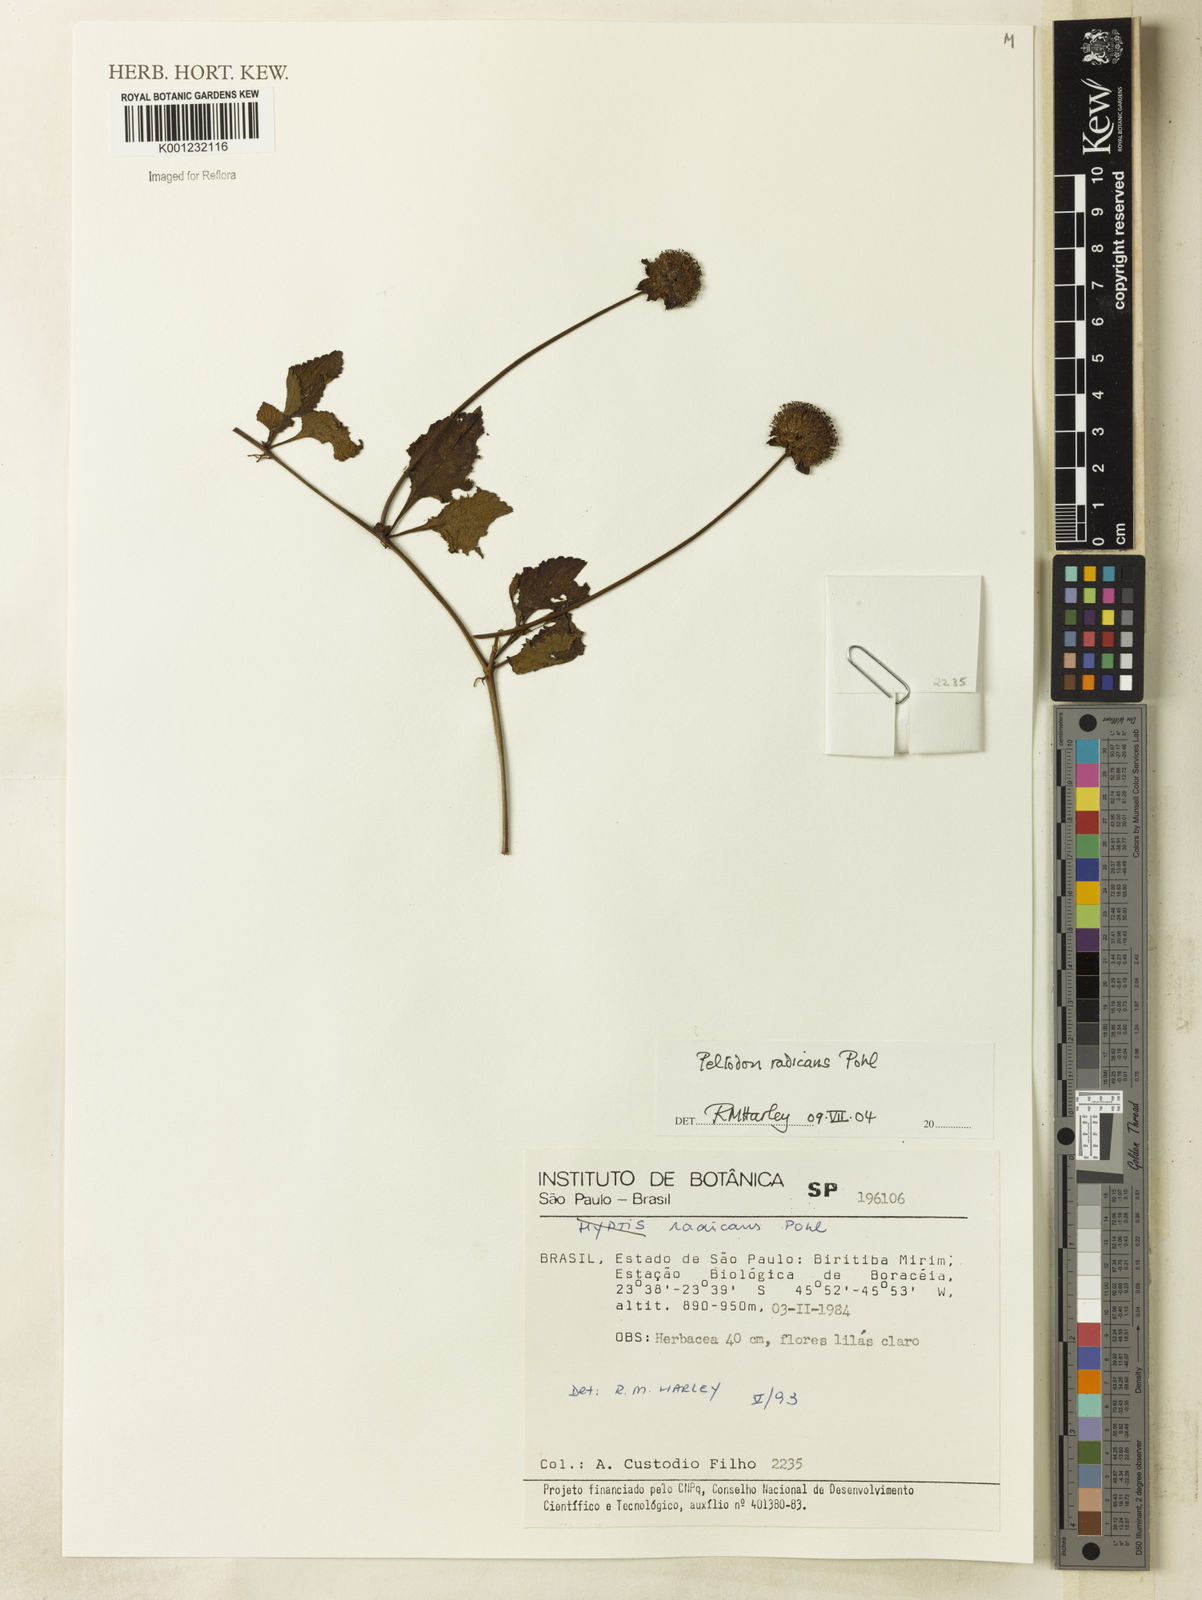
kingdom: Plantae
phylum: Tracheophyta
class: Magnoliopsida
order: Lamiales
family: Lamiaceae
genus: Hyptis
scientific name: Hyptis radicans
